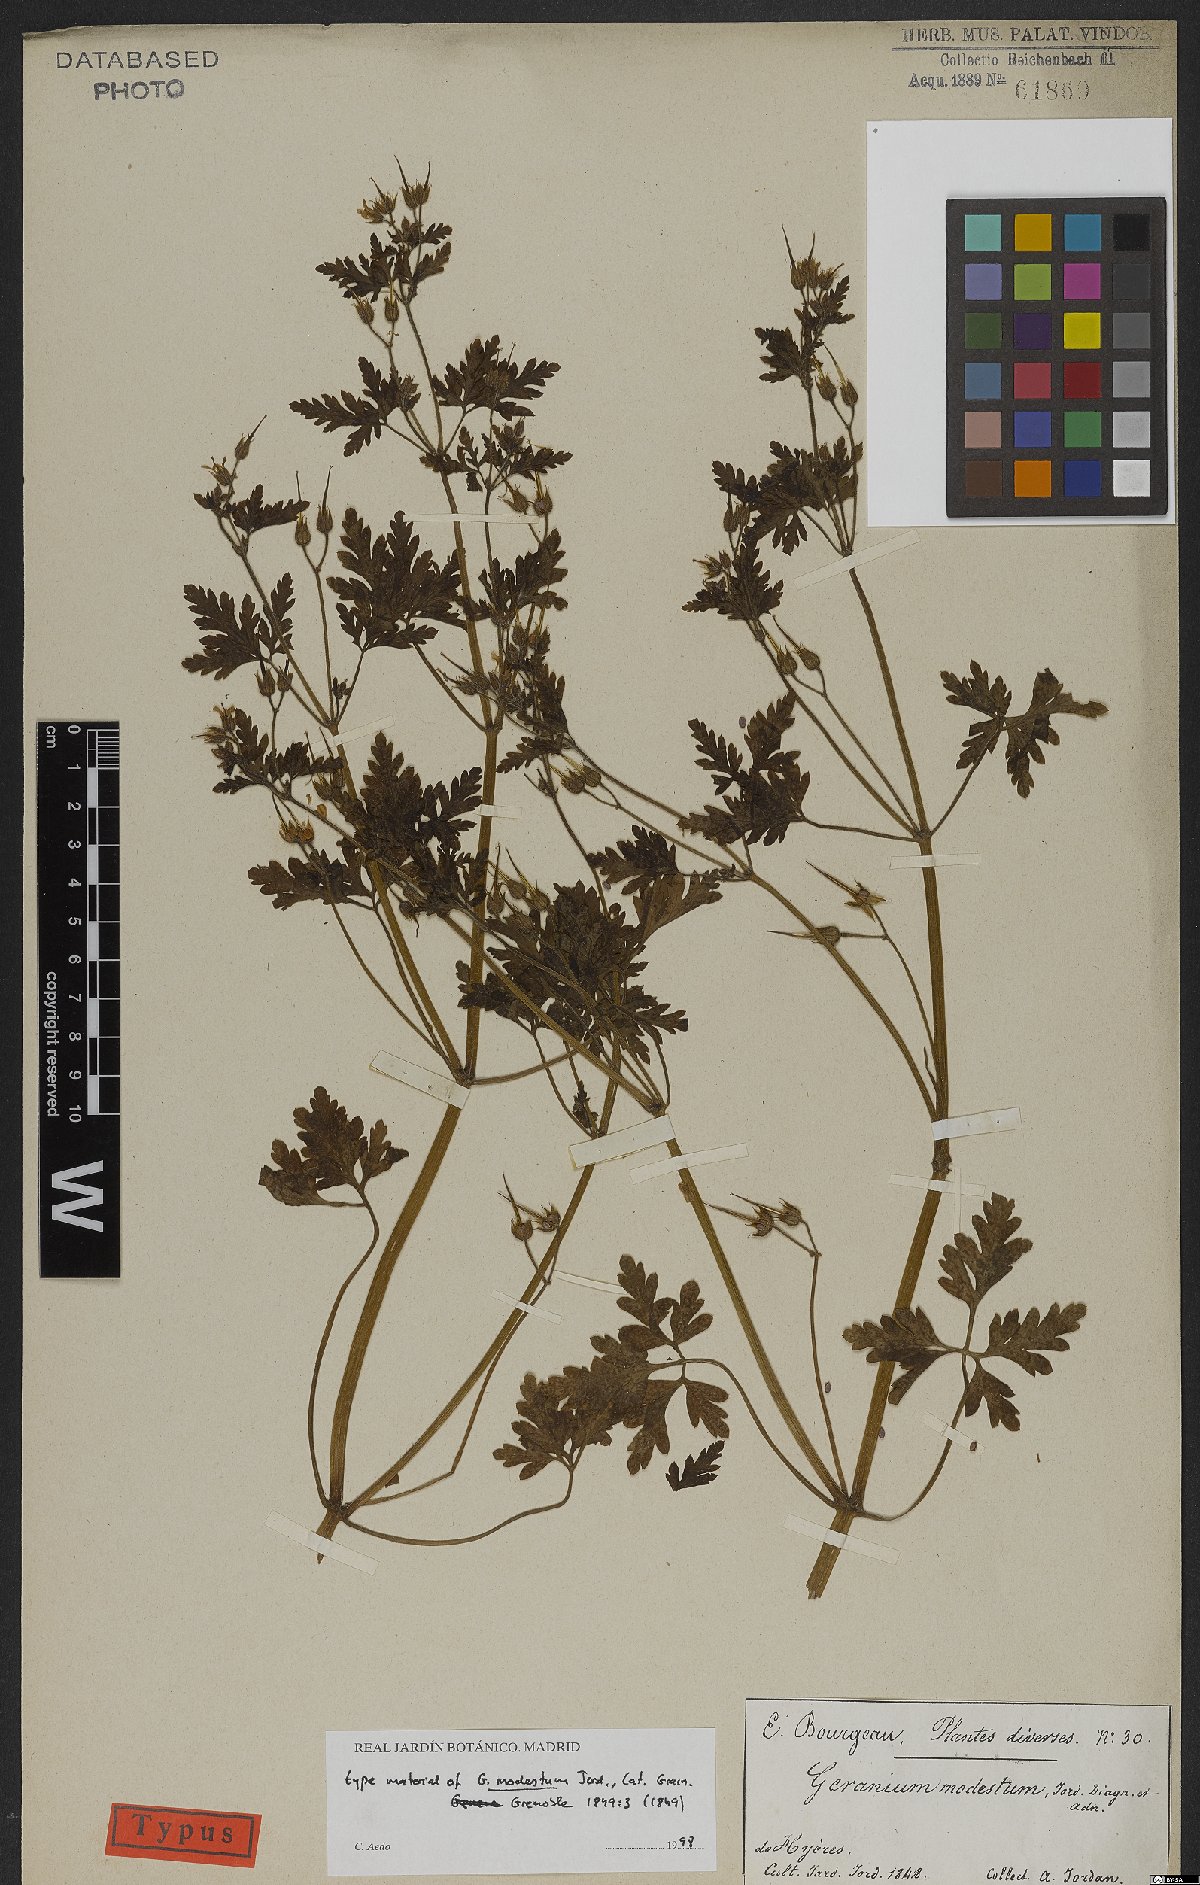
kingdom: Plantae
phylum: Tracheophyta
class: Magnoliopsida
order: Geraniales
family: Geraniaceae
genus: Geranium
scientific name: Geranium purpureum
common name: Little-robin
